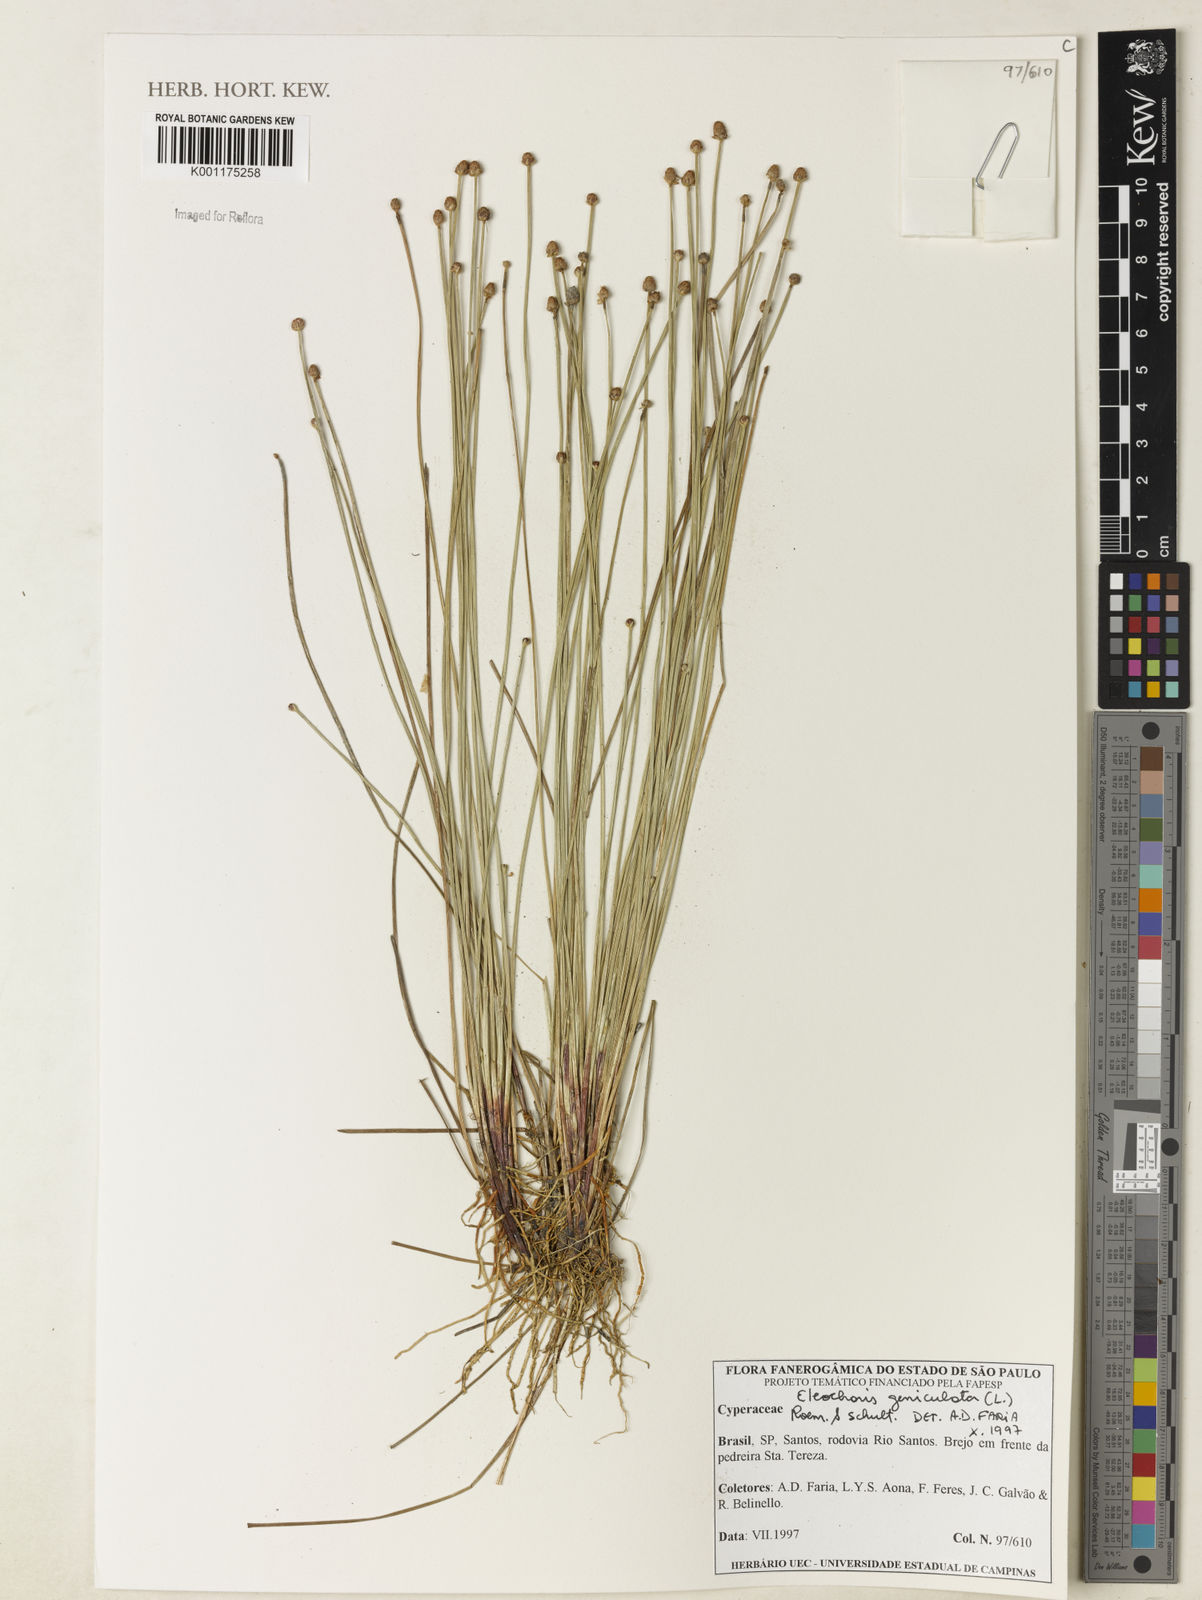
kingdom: Plantae
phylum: Tracheophyta
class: Liliopsida
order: Poales
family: Cyperaceae
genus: Eleocharis
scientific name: Eleocharis geniculata
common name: Canada spikesedge
